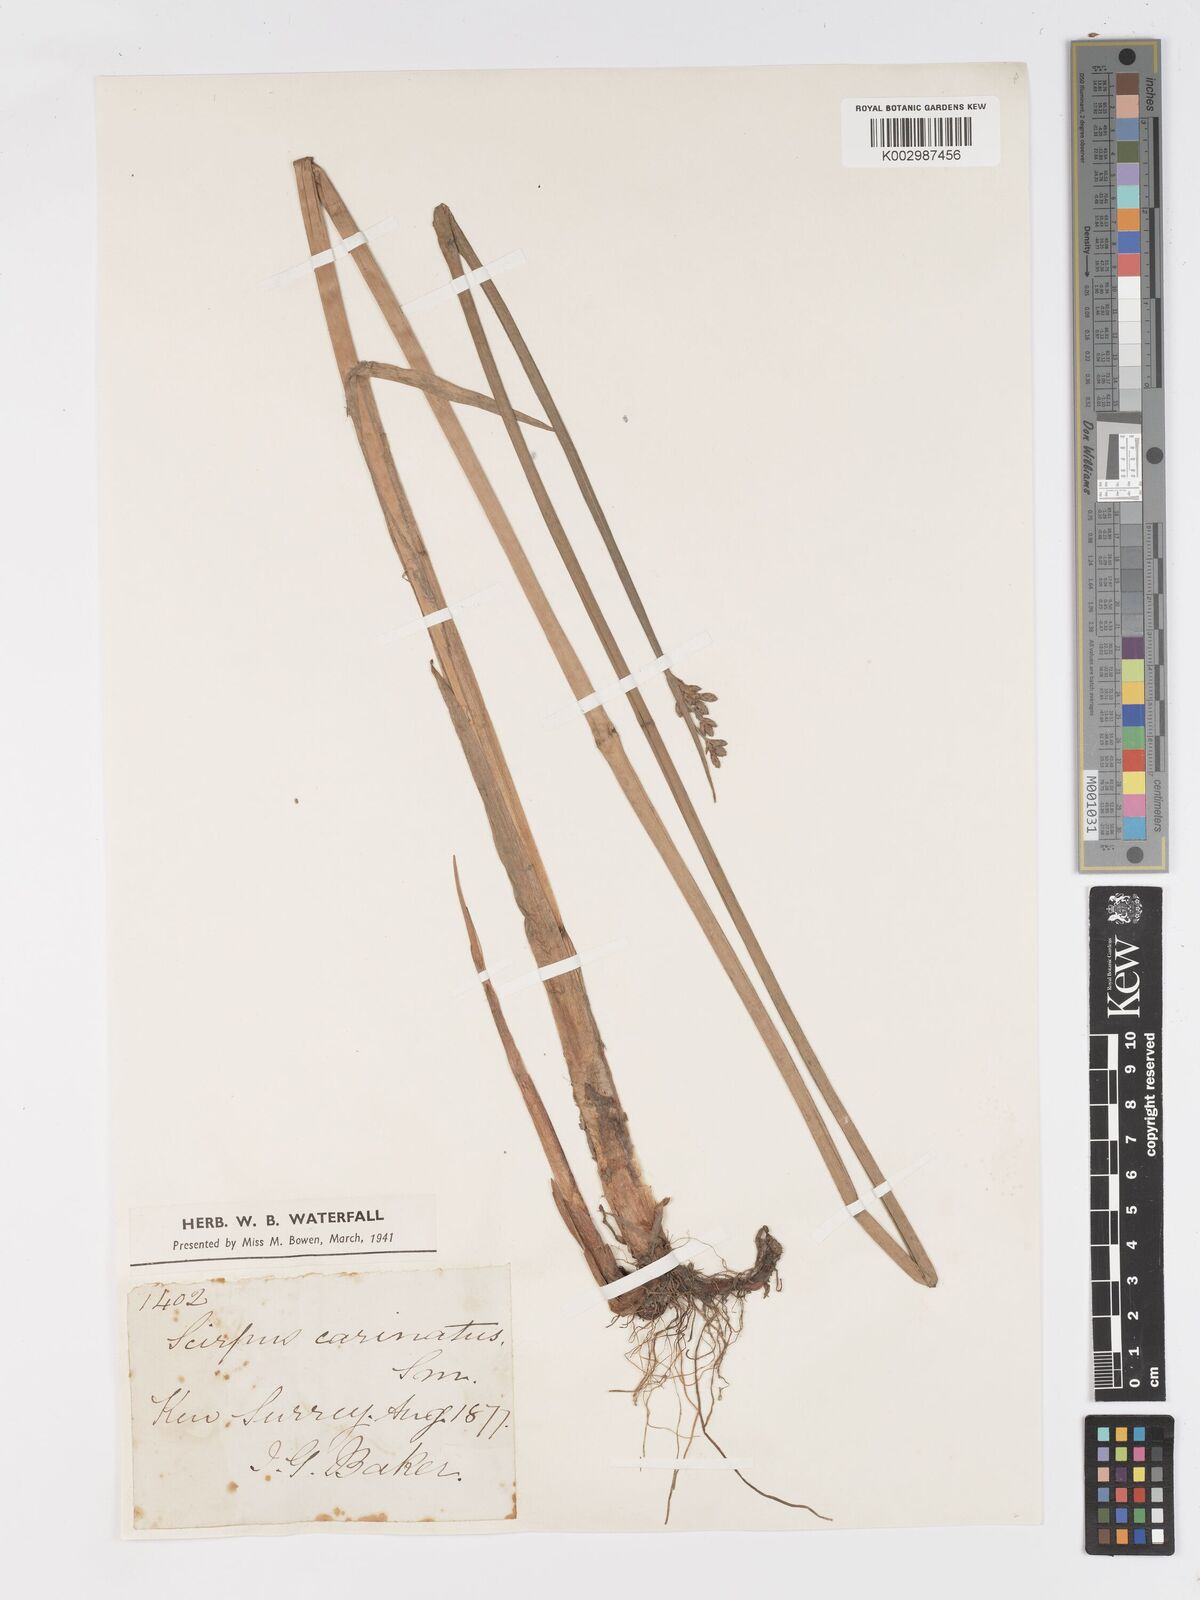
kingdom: Plantae
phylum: Tracheophyta
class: Liliopsida
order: Poales
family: Cyperaceae
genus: Schoenoplectus
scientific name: Schoenoplectus carinatus
